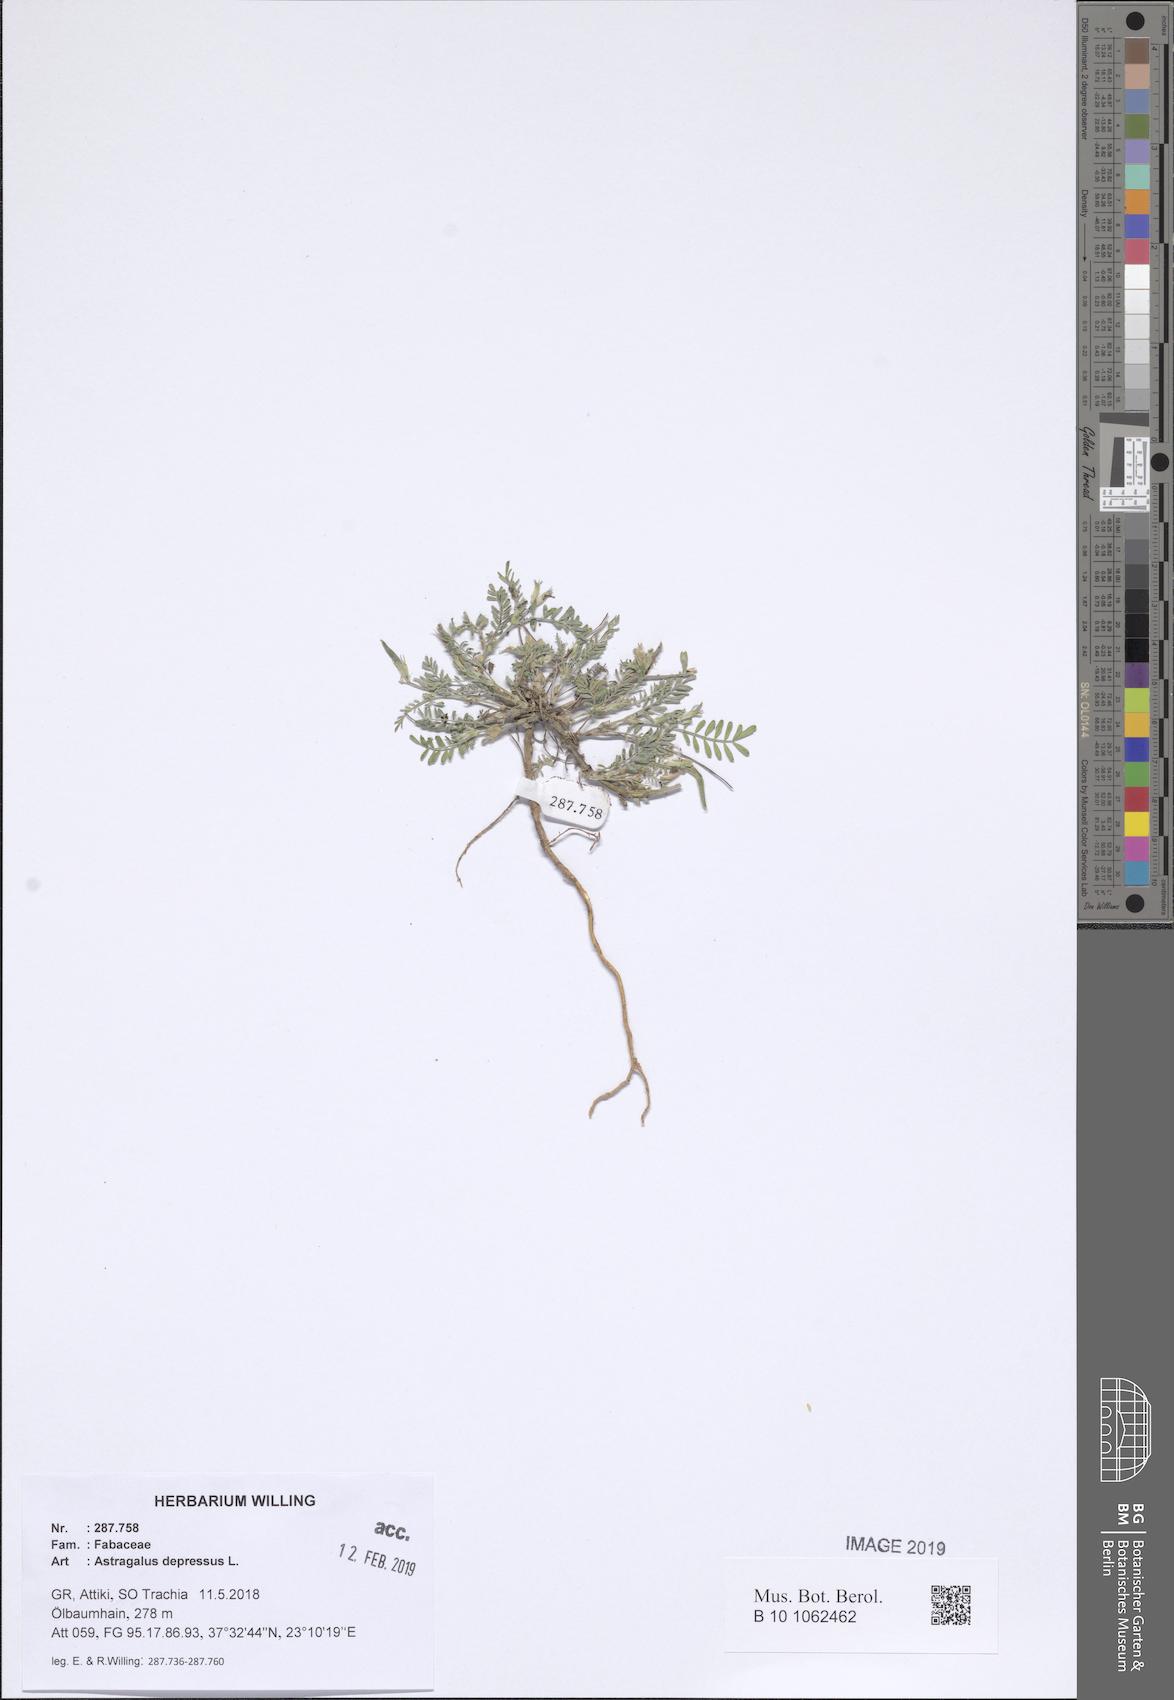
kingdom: Plantae
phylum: Tracheophyta
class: Magnoliopsida
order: Fabales
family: Fabaceae
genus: Astragalus
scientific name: Astragalus depressus
